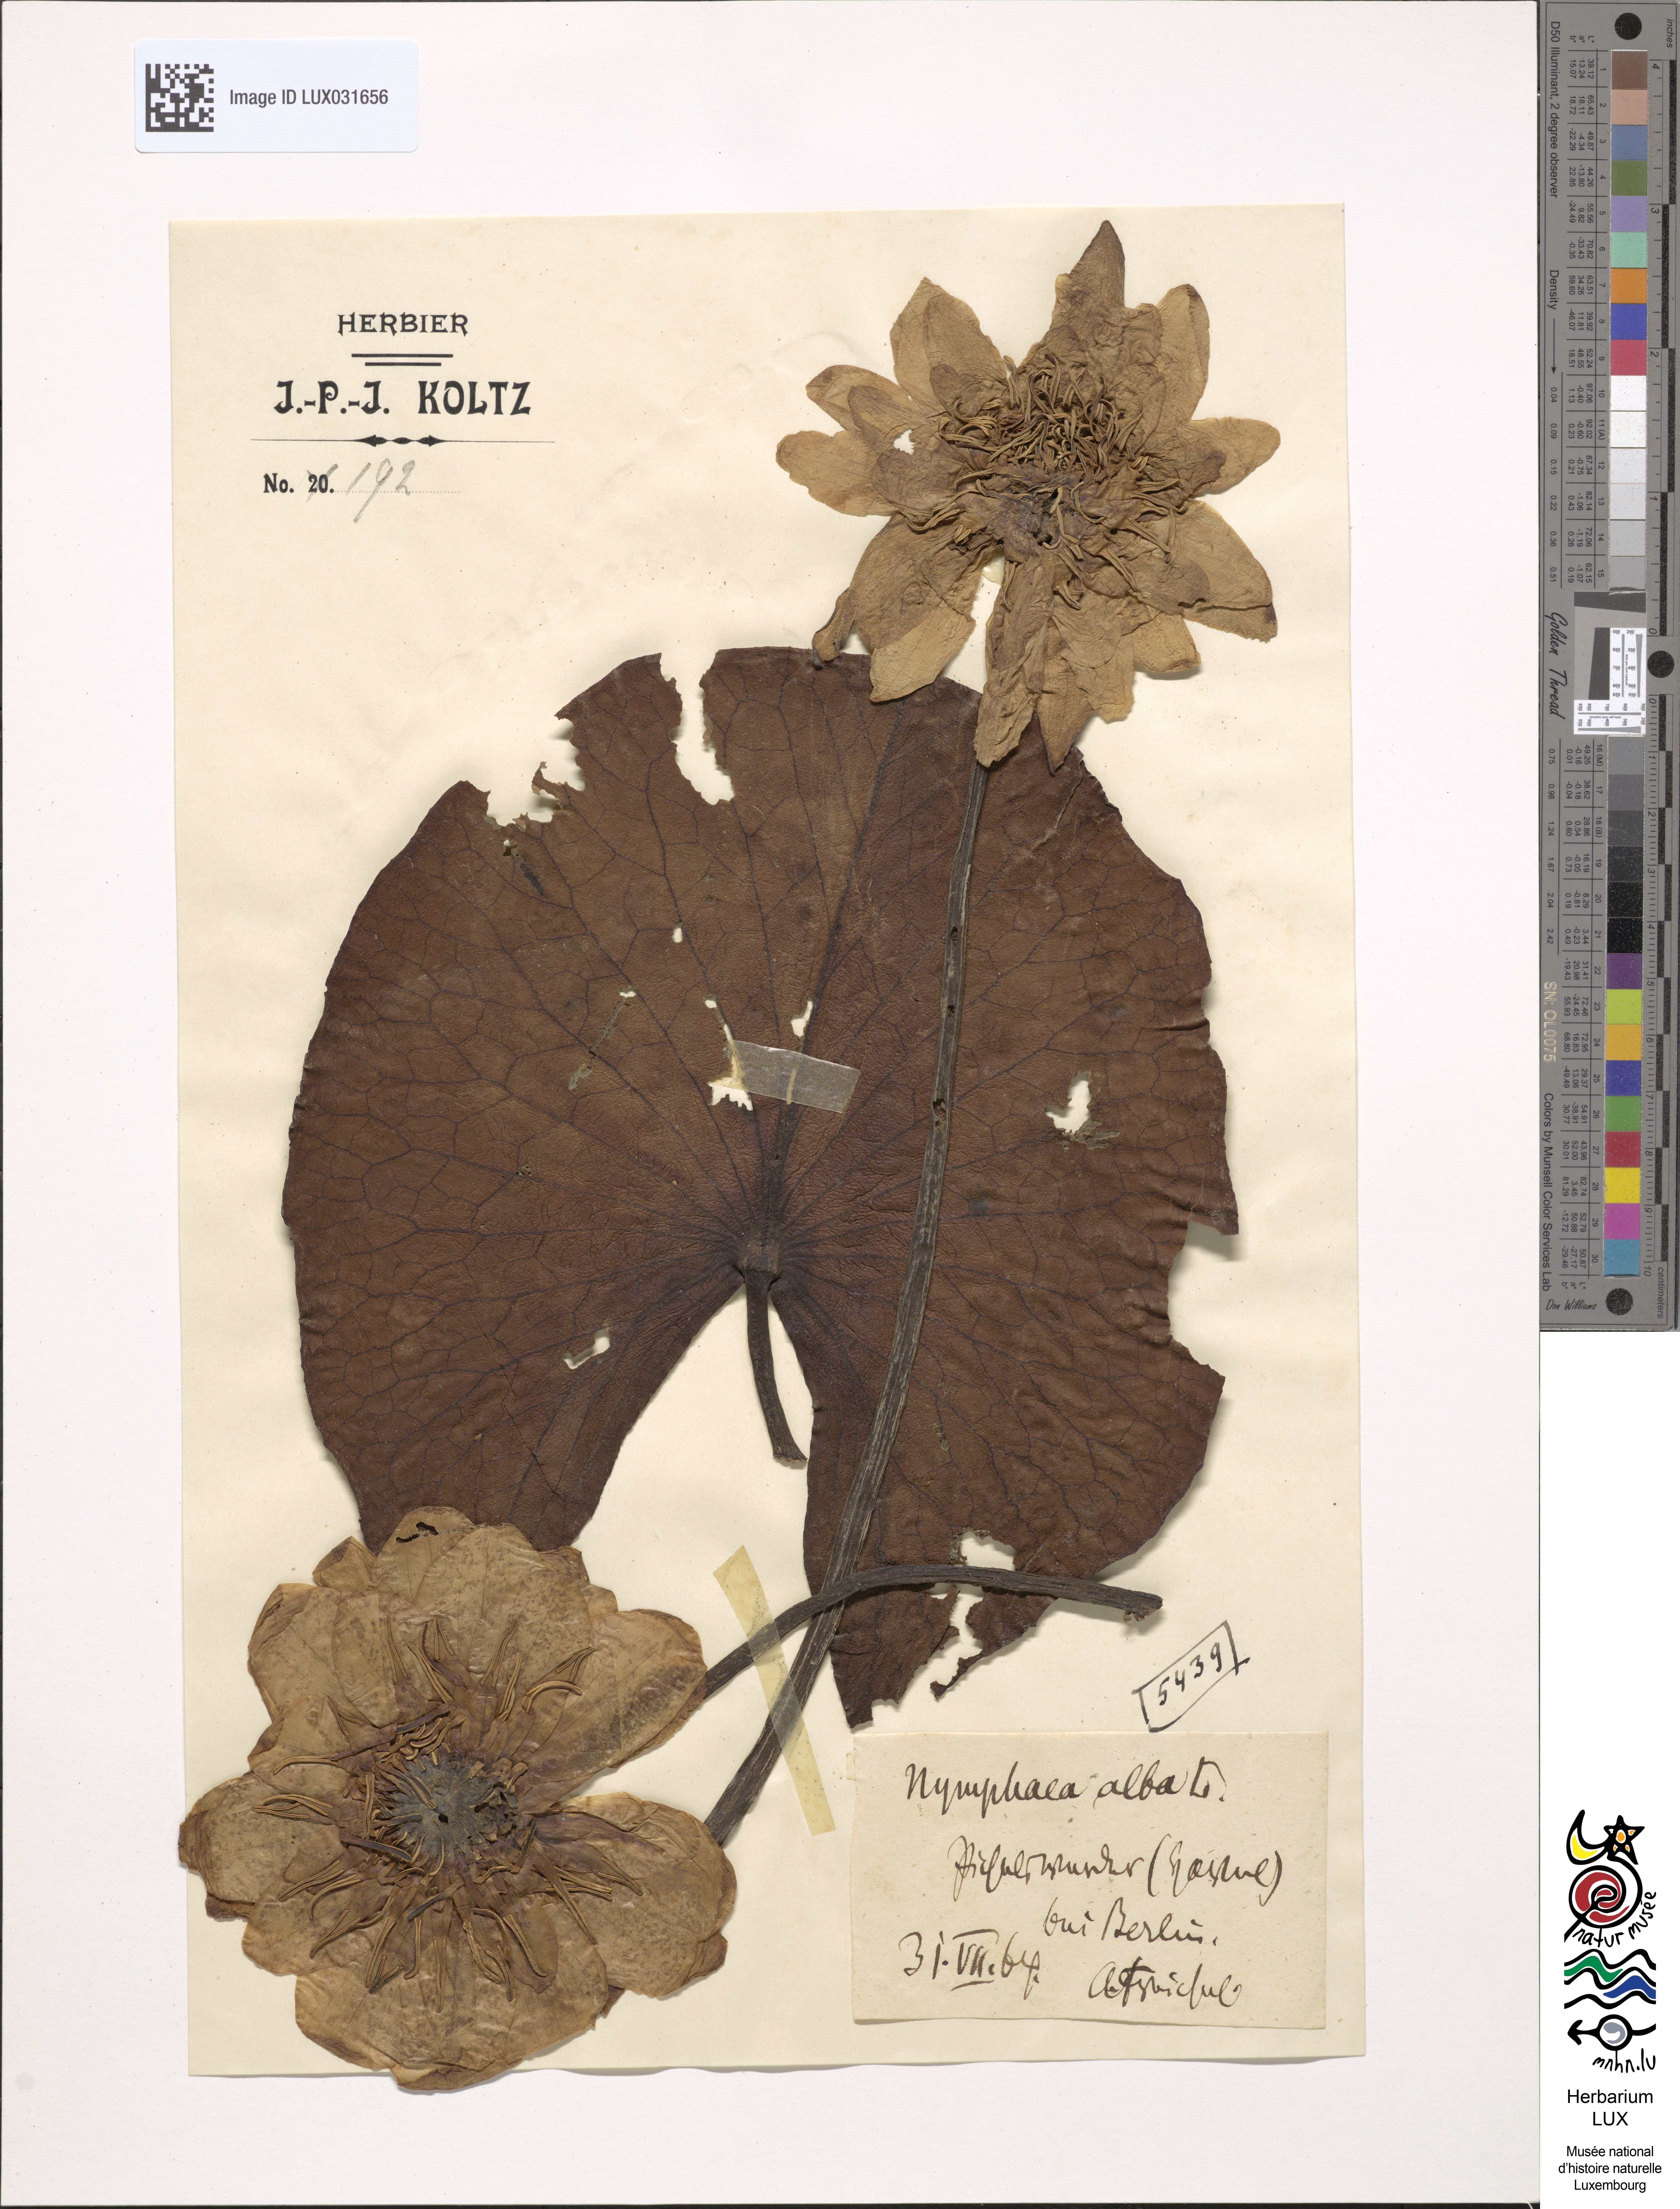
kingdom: Plantae
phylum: Tracheophyta
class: Magnoliopsida
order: Nymphaeales
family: Nymphaeaceae
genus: Nymphaea
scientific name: Nymphaea alba
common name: White water-lily
